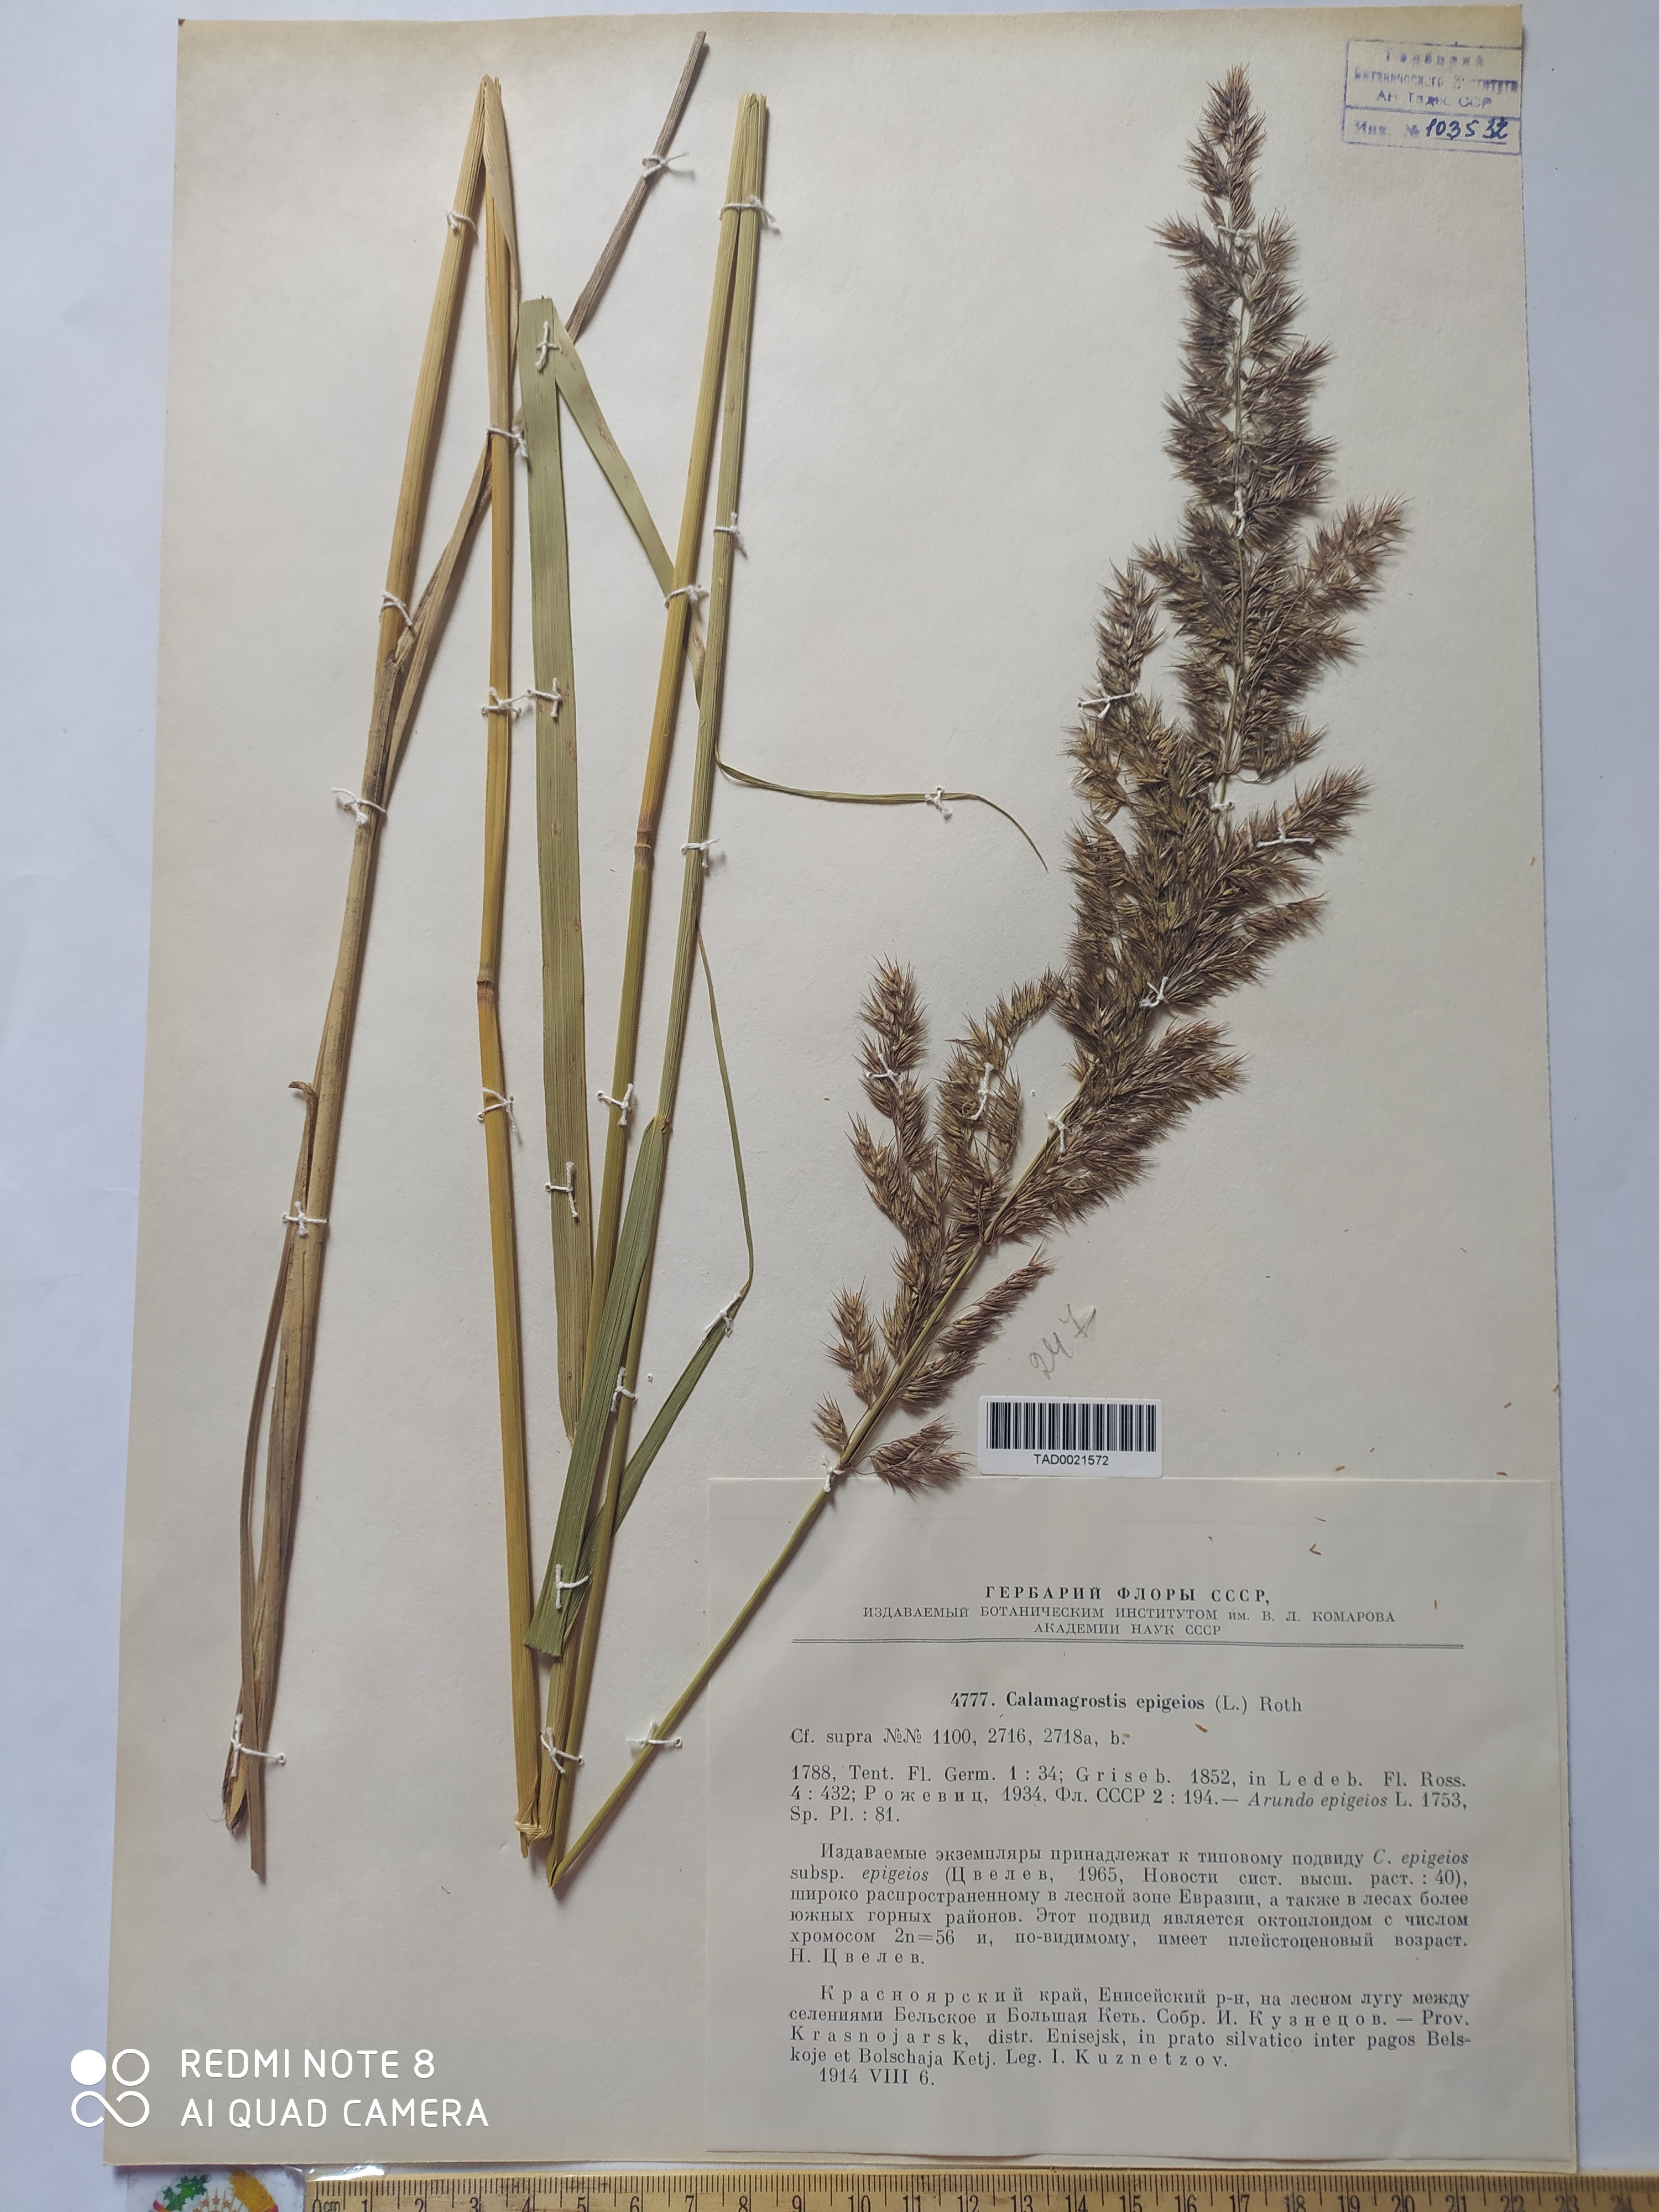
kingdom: Plantae
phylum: Tracheophyta
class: Liliopsida
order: Poales
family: Poaceae
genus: Calamagrostis
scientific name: Calamagrostis epigejos
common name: Wood small-reed
